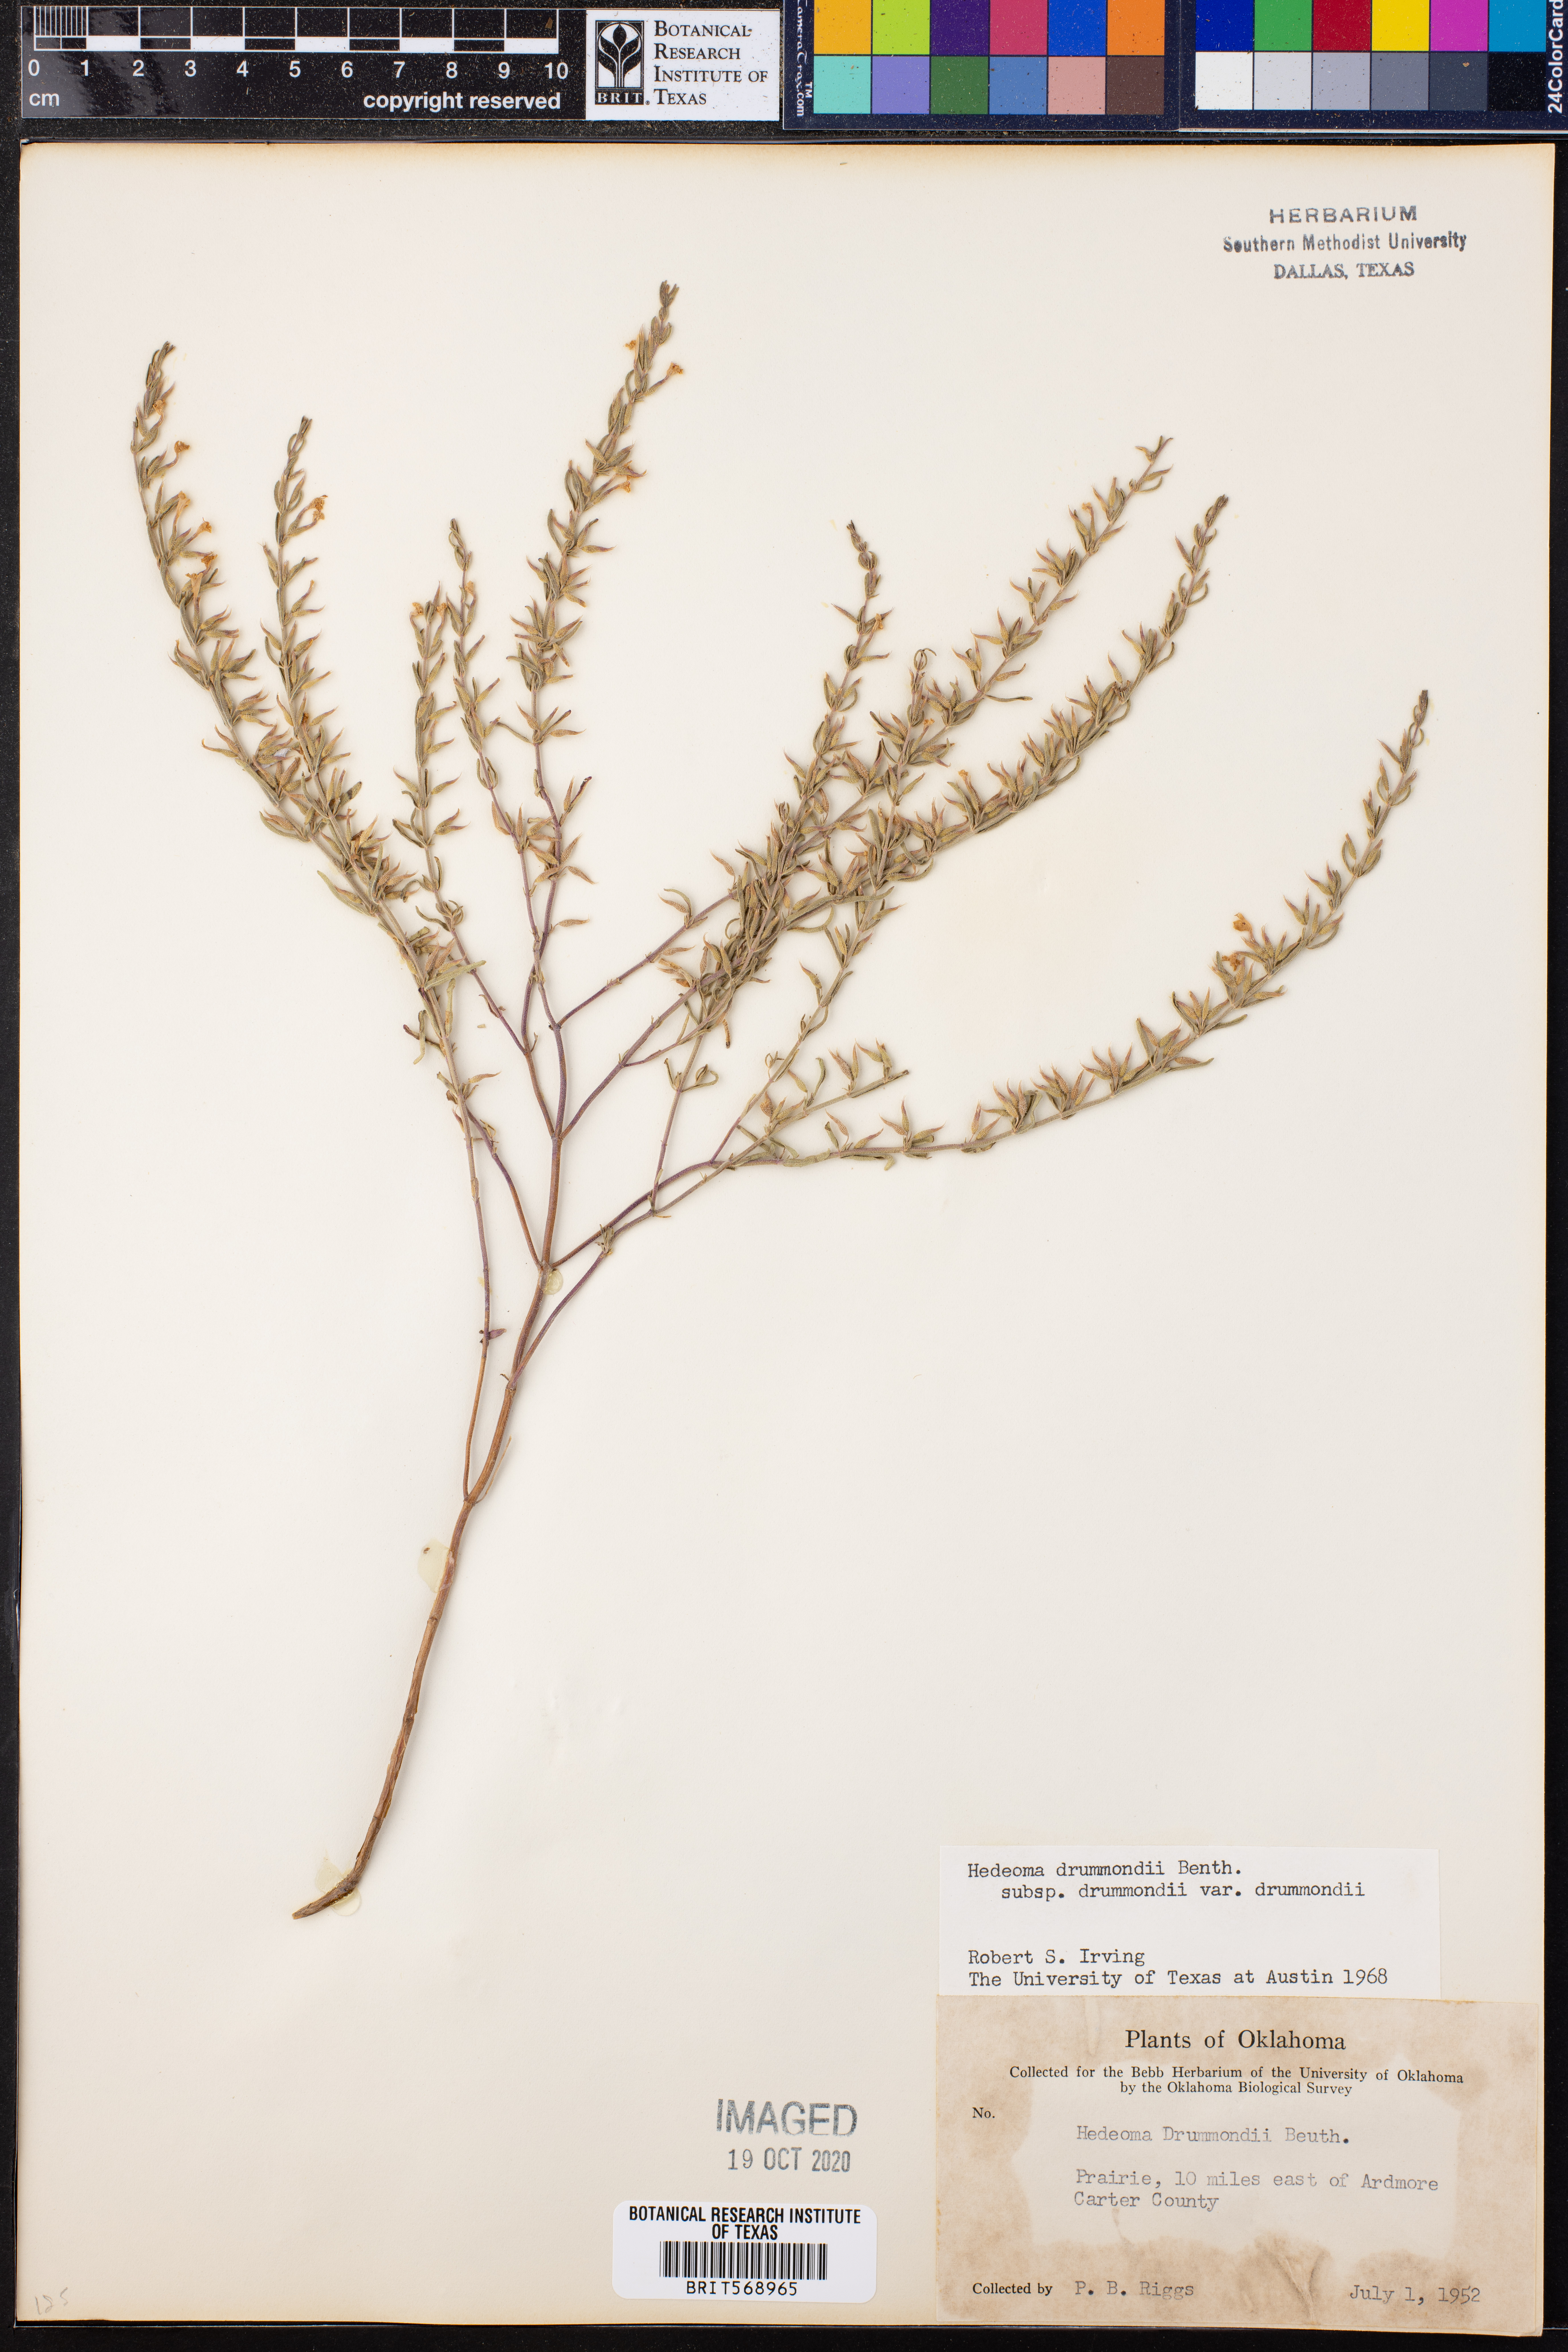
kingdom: Plantae
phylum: Tracheophyta
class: Magnoliopsida
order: Lamiales
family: Lamiaceae
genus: Hedeoma
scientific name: Hedeoma drummondii
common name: New mexico pennyroyal
